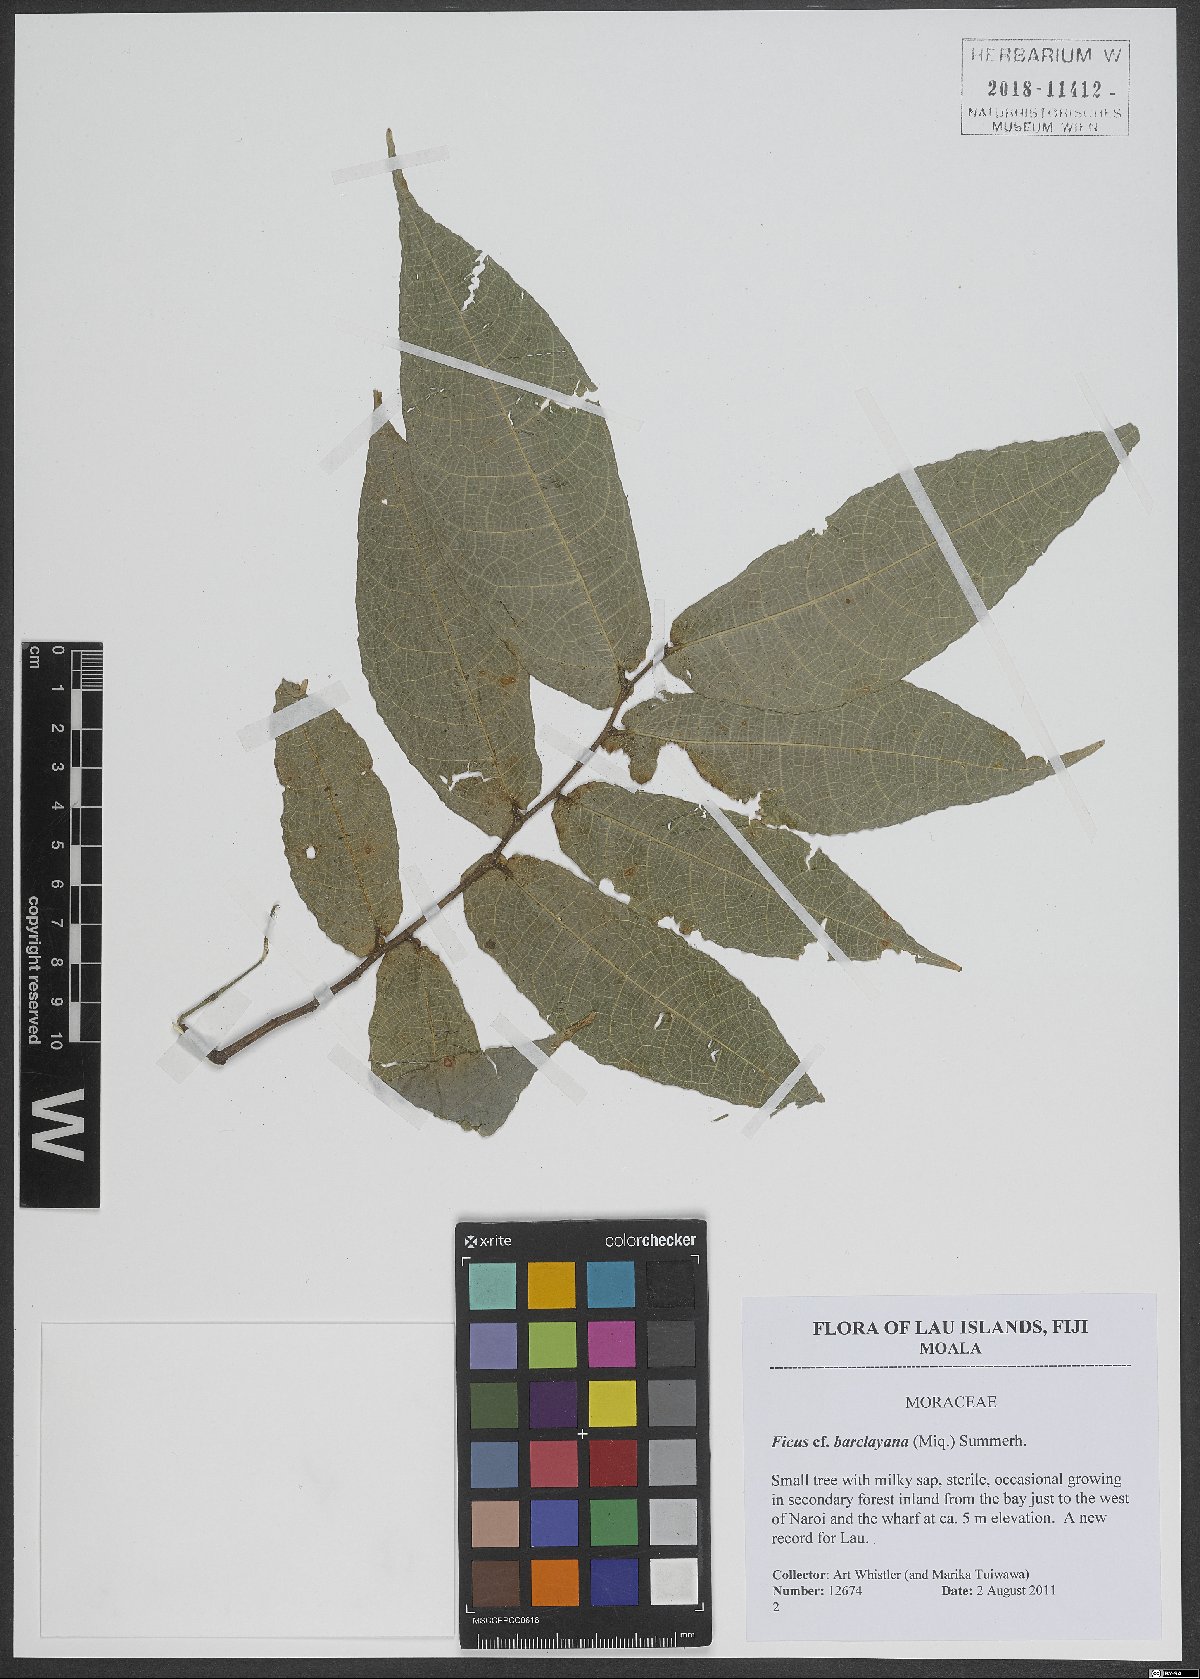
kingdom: Plantae
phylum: Tracheophyta
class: Magnoliopsida
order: Rosales
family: Moraceae
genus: Ficus
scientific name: Ficus barclayana
